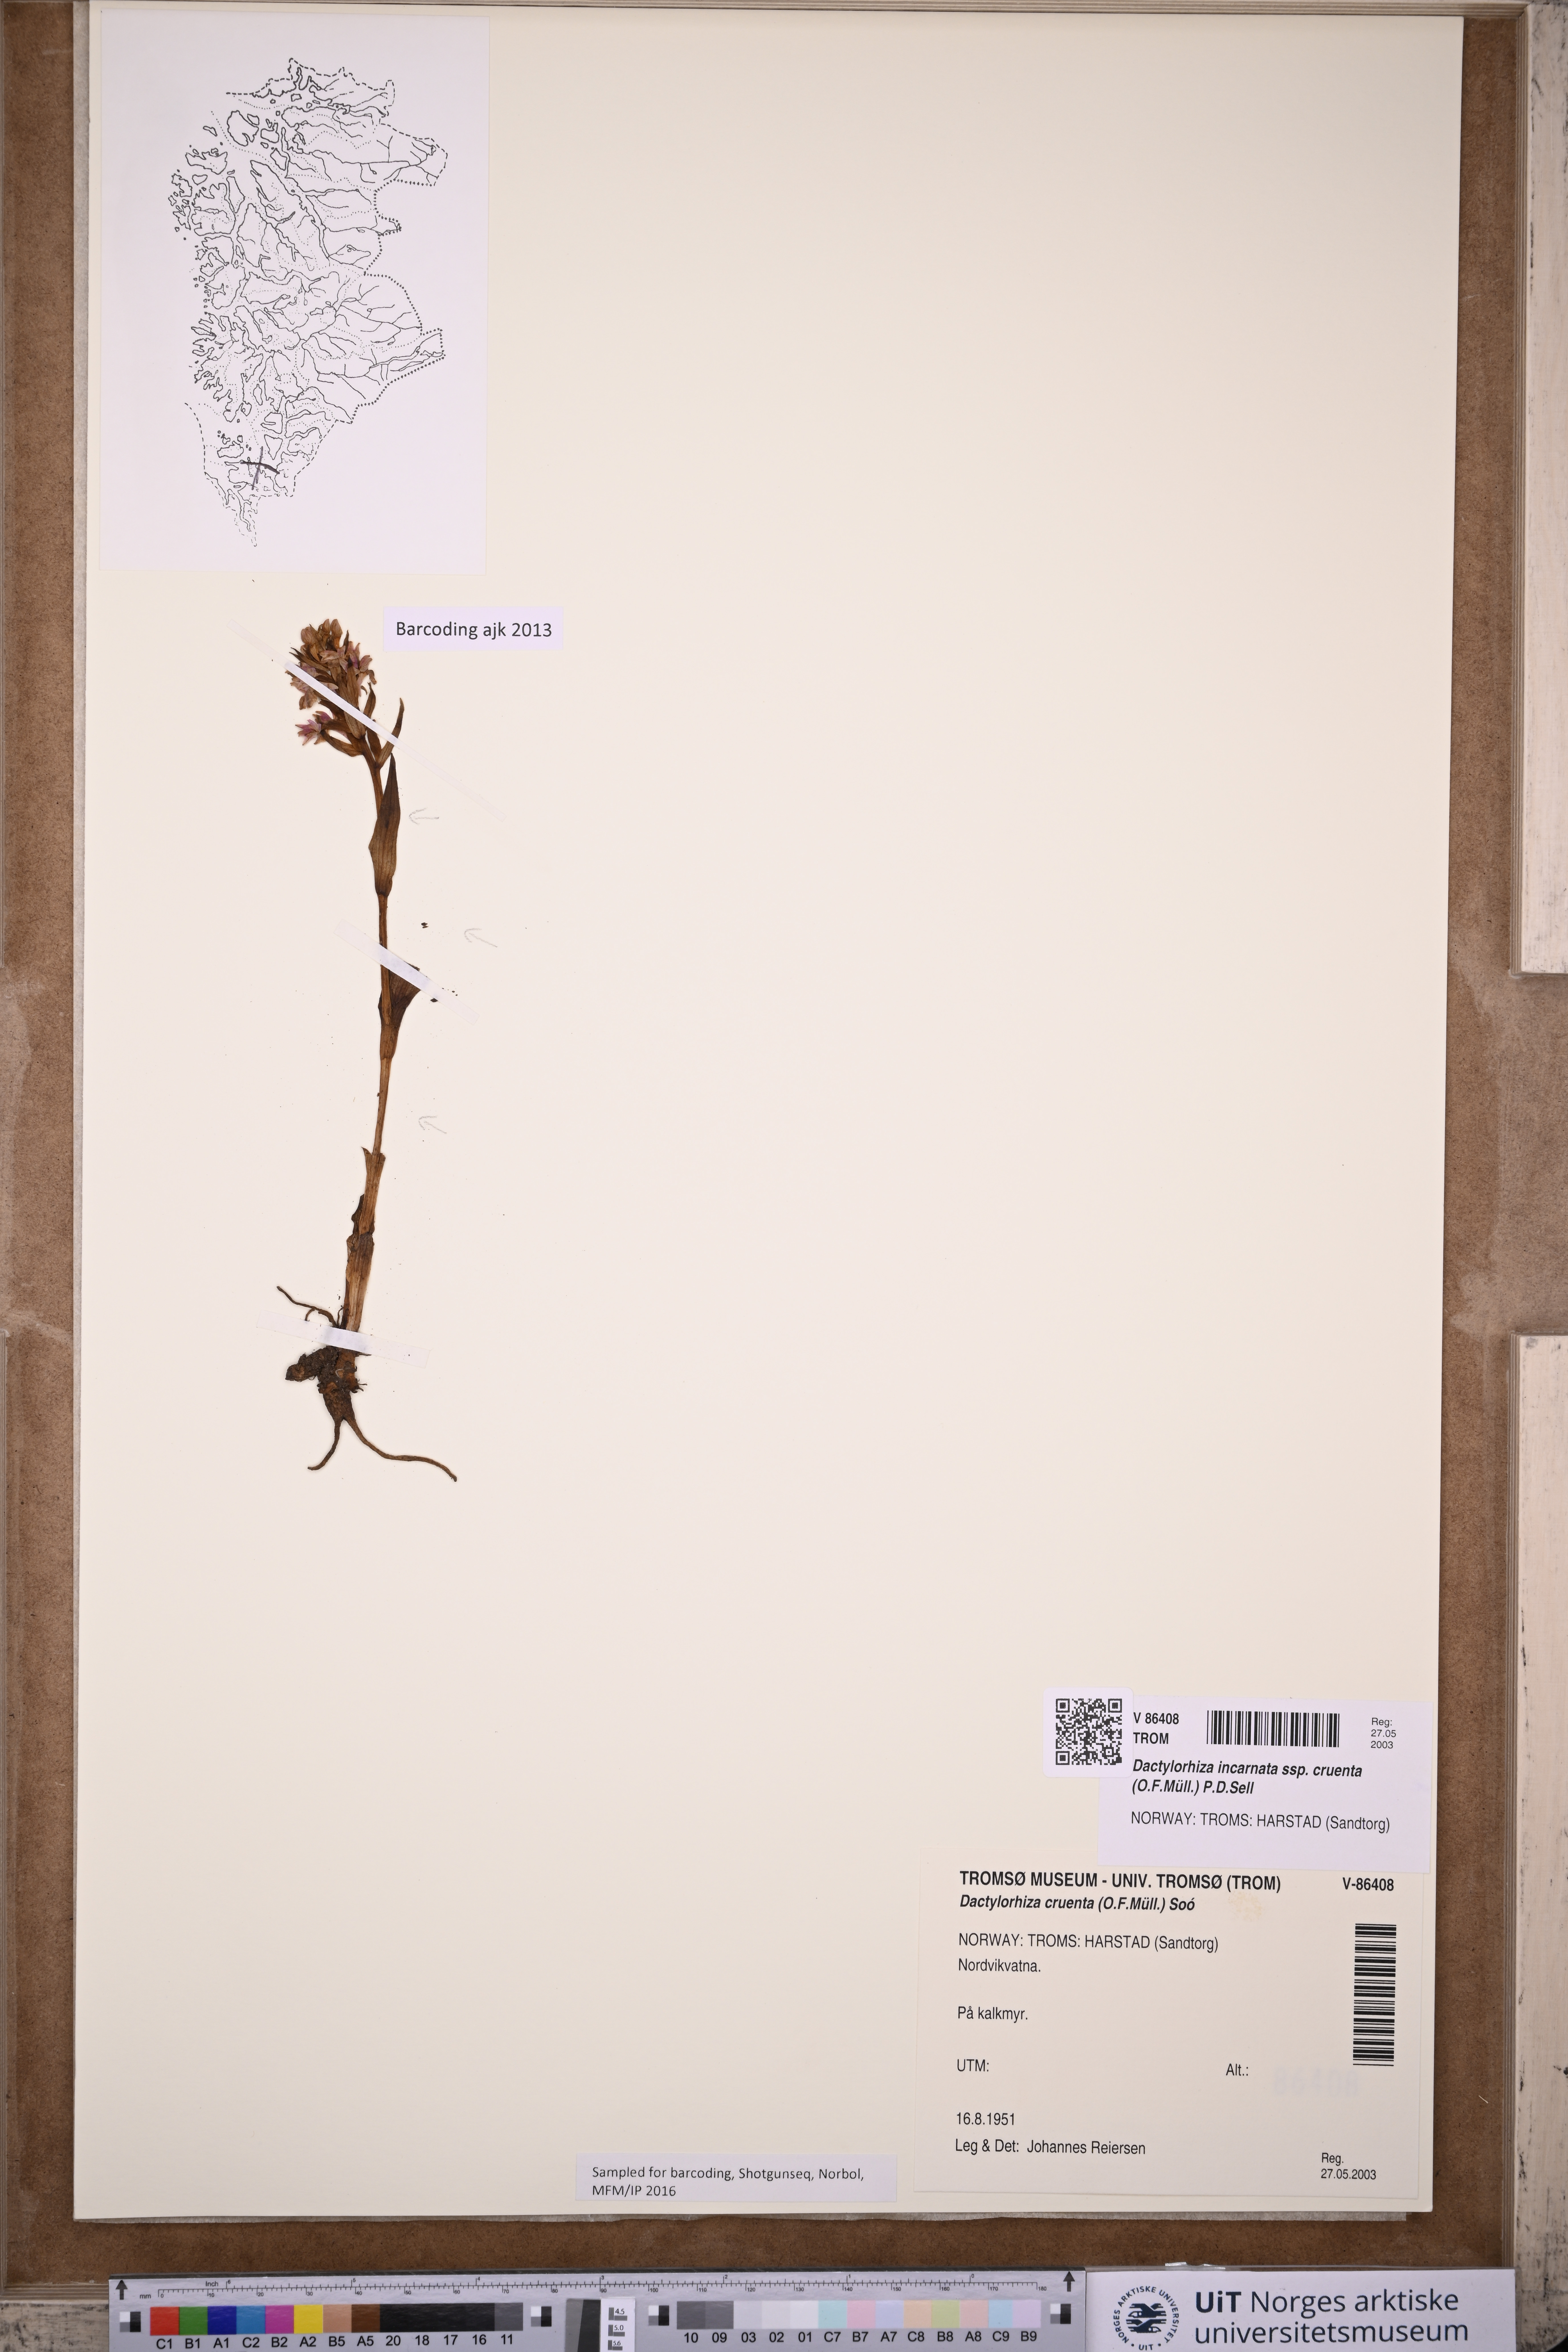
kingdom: Plantae
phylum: Tracheophyta
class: Liliopsida
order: Asparagales
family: Orchidaceae
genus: Dactylorhiza
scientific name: Dactylorhiza incarnata
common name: Early marsh-orchid
